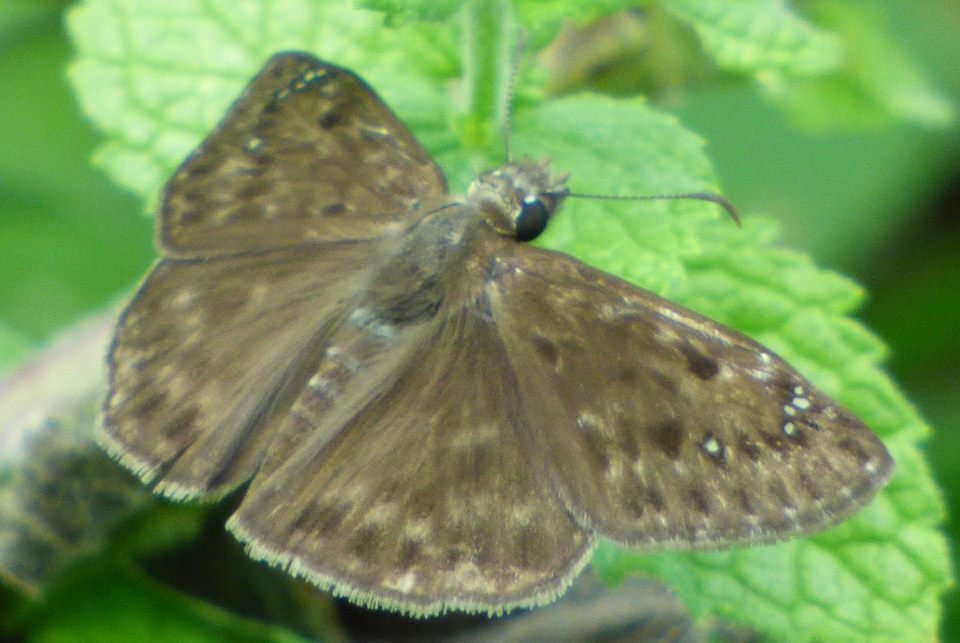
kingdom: Animalia
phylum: Arthropoda
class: Insecta
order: Lepidoptera
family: Hesperiidae
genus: Gesta
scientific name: Gesta
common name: Horace's Duskywing
